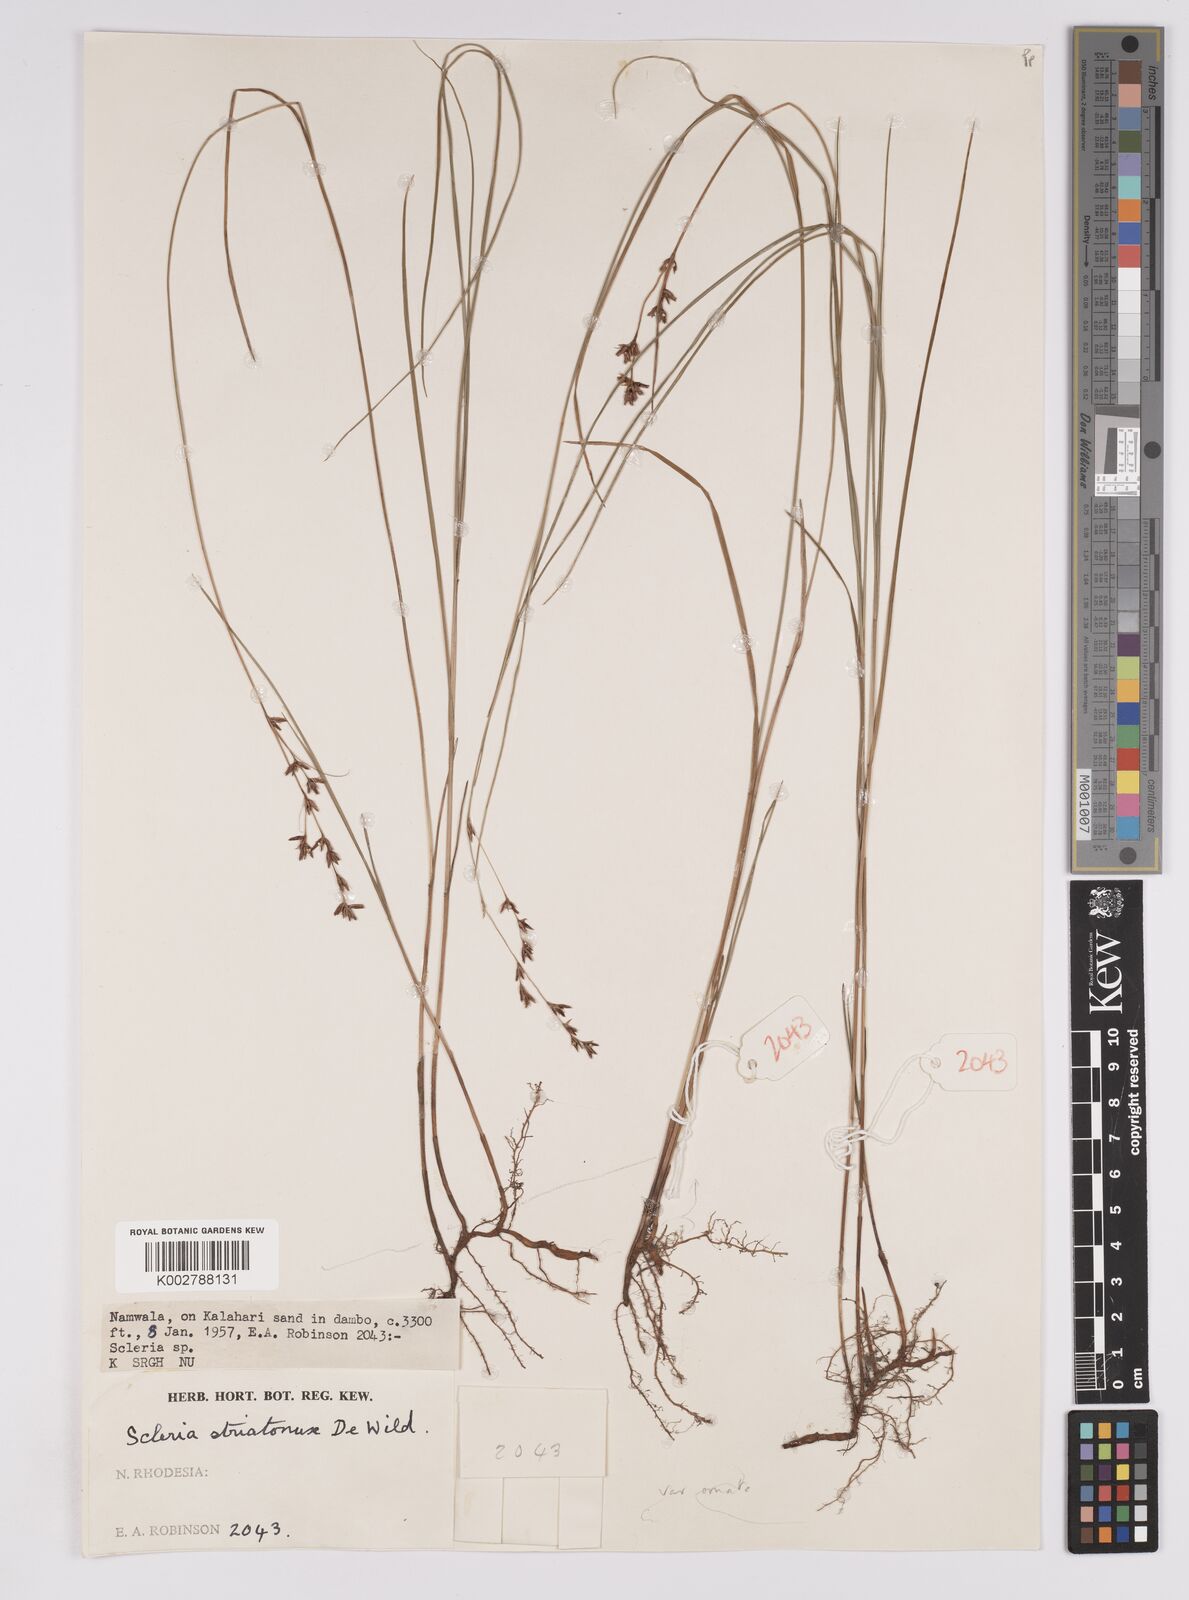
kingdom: Plantae
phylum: Tracheophyta
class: Liliopsida
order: Poales
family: Cyperaceae
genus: Scleria
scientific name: Scleria woodii
